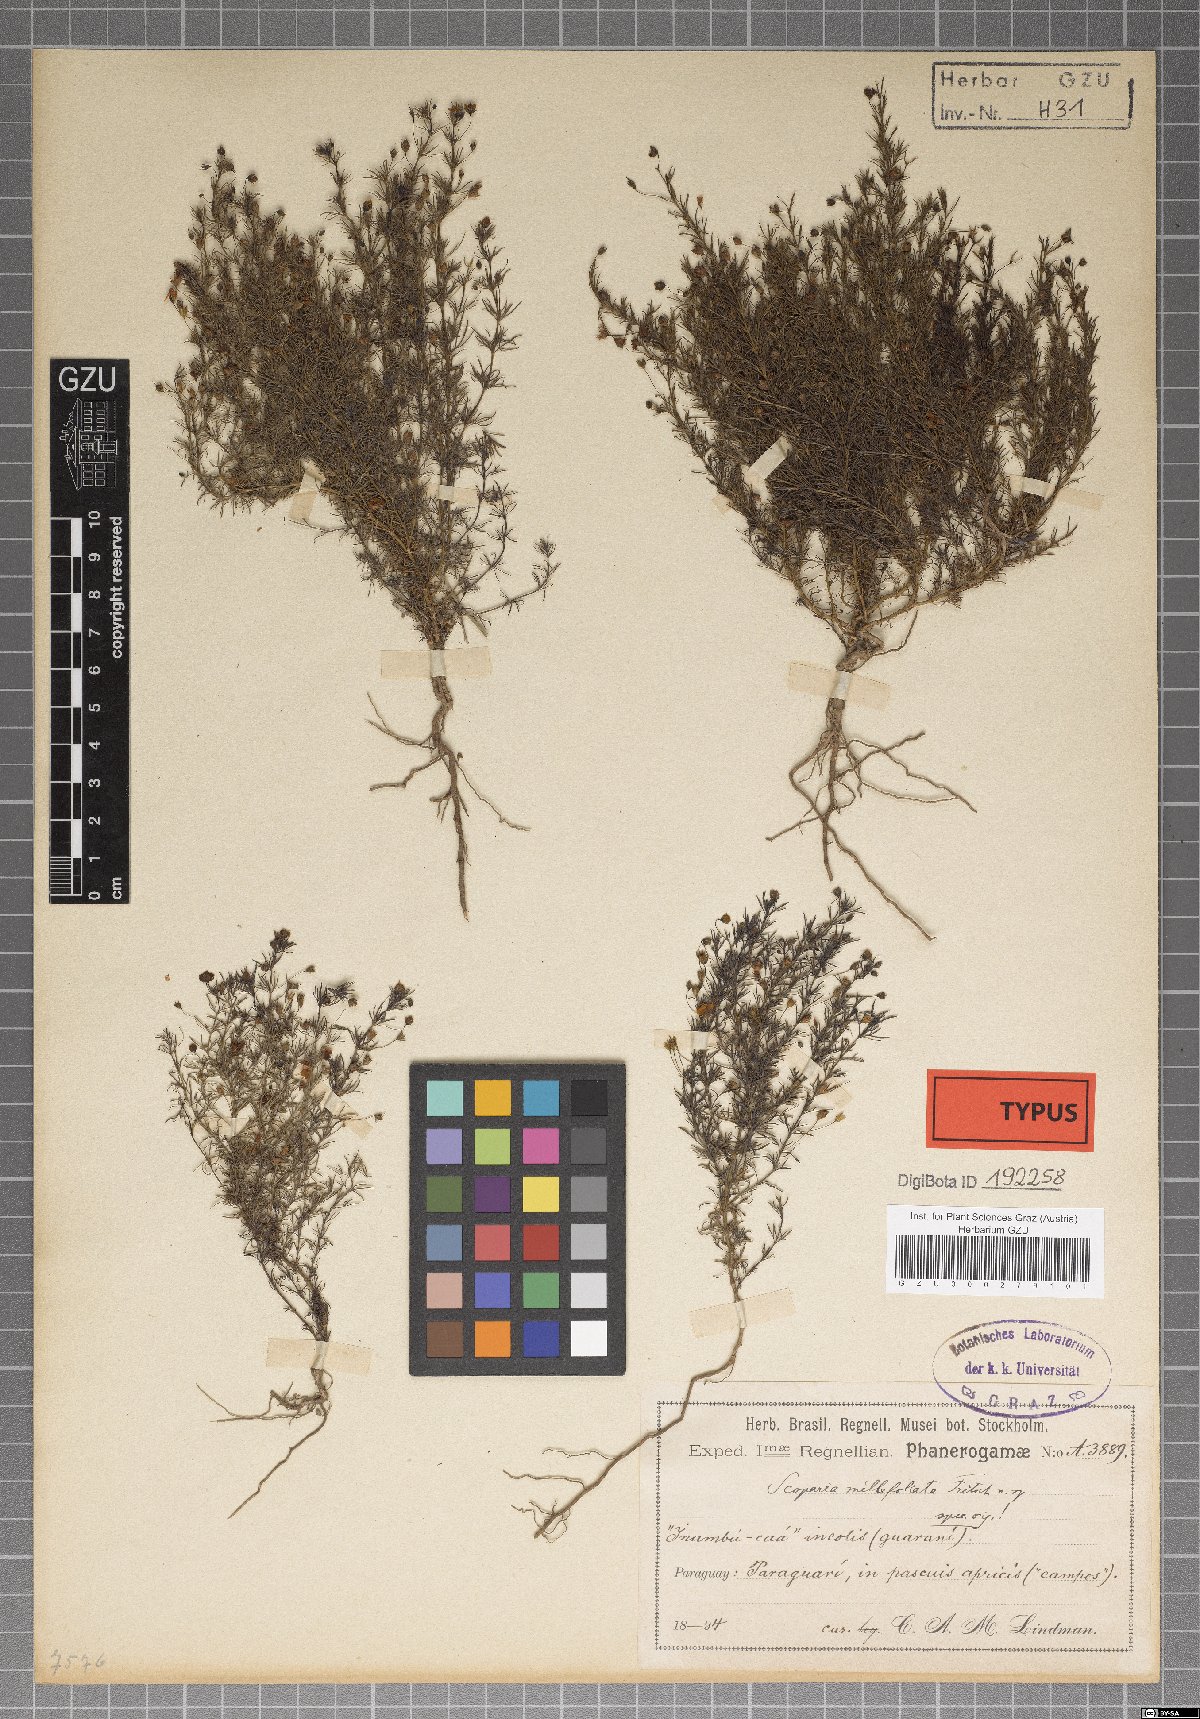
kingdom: Plantae
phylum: Tracheophyta
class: Magnoliopsida
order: Lamiales
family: Plantaginaceae
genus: Scoparia
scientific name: Scoparia montevidensis
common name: Broomwort
